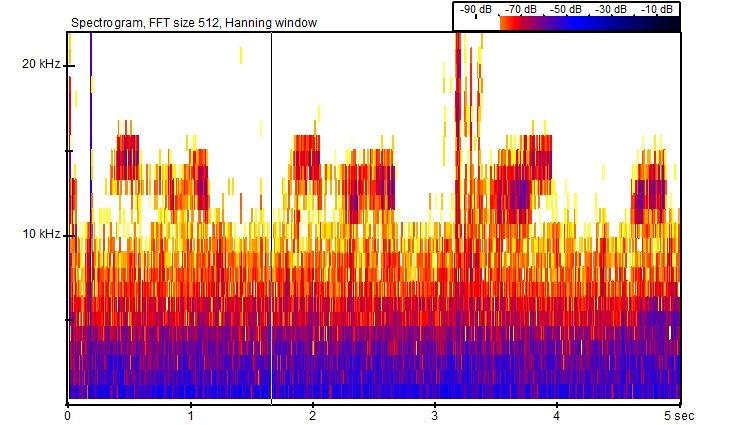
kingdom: Animalia
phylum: Chordata
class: Amphibia
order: Anura
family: Bufonidae
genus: Bufotes
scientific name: Bufotes viridis
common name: Grønbroget tudse
